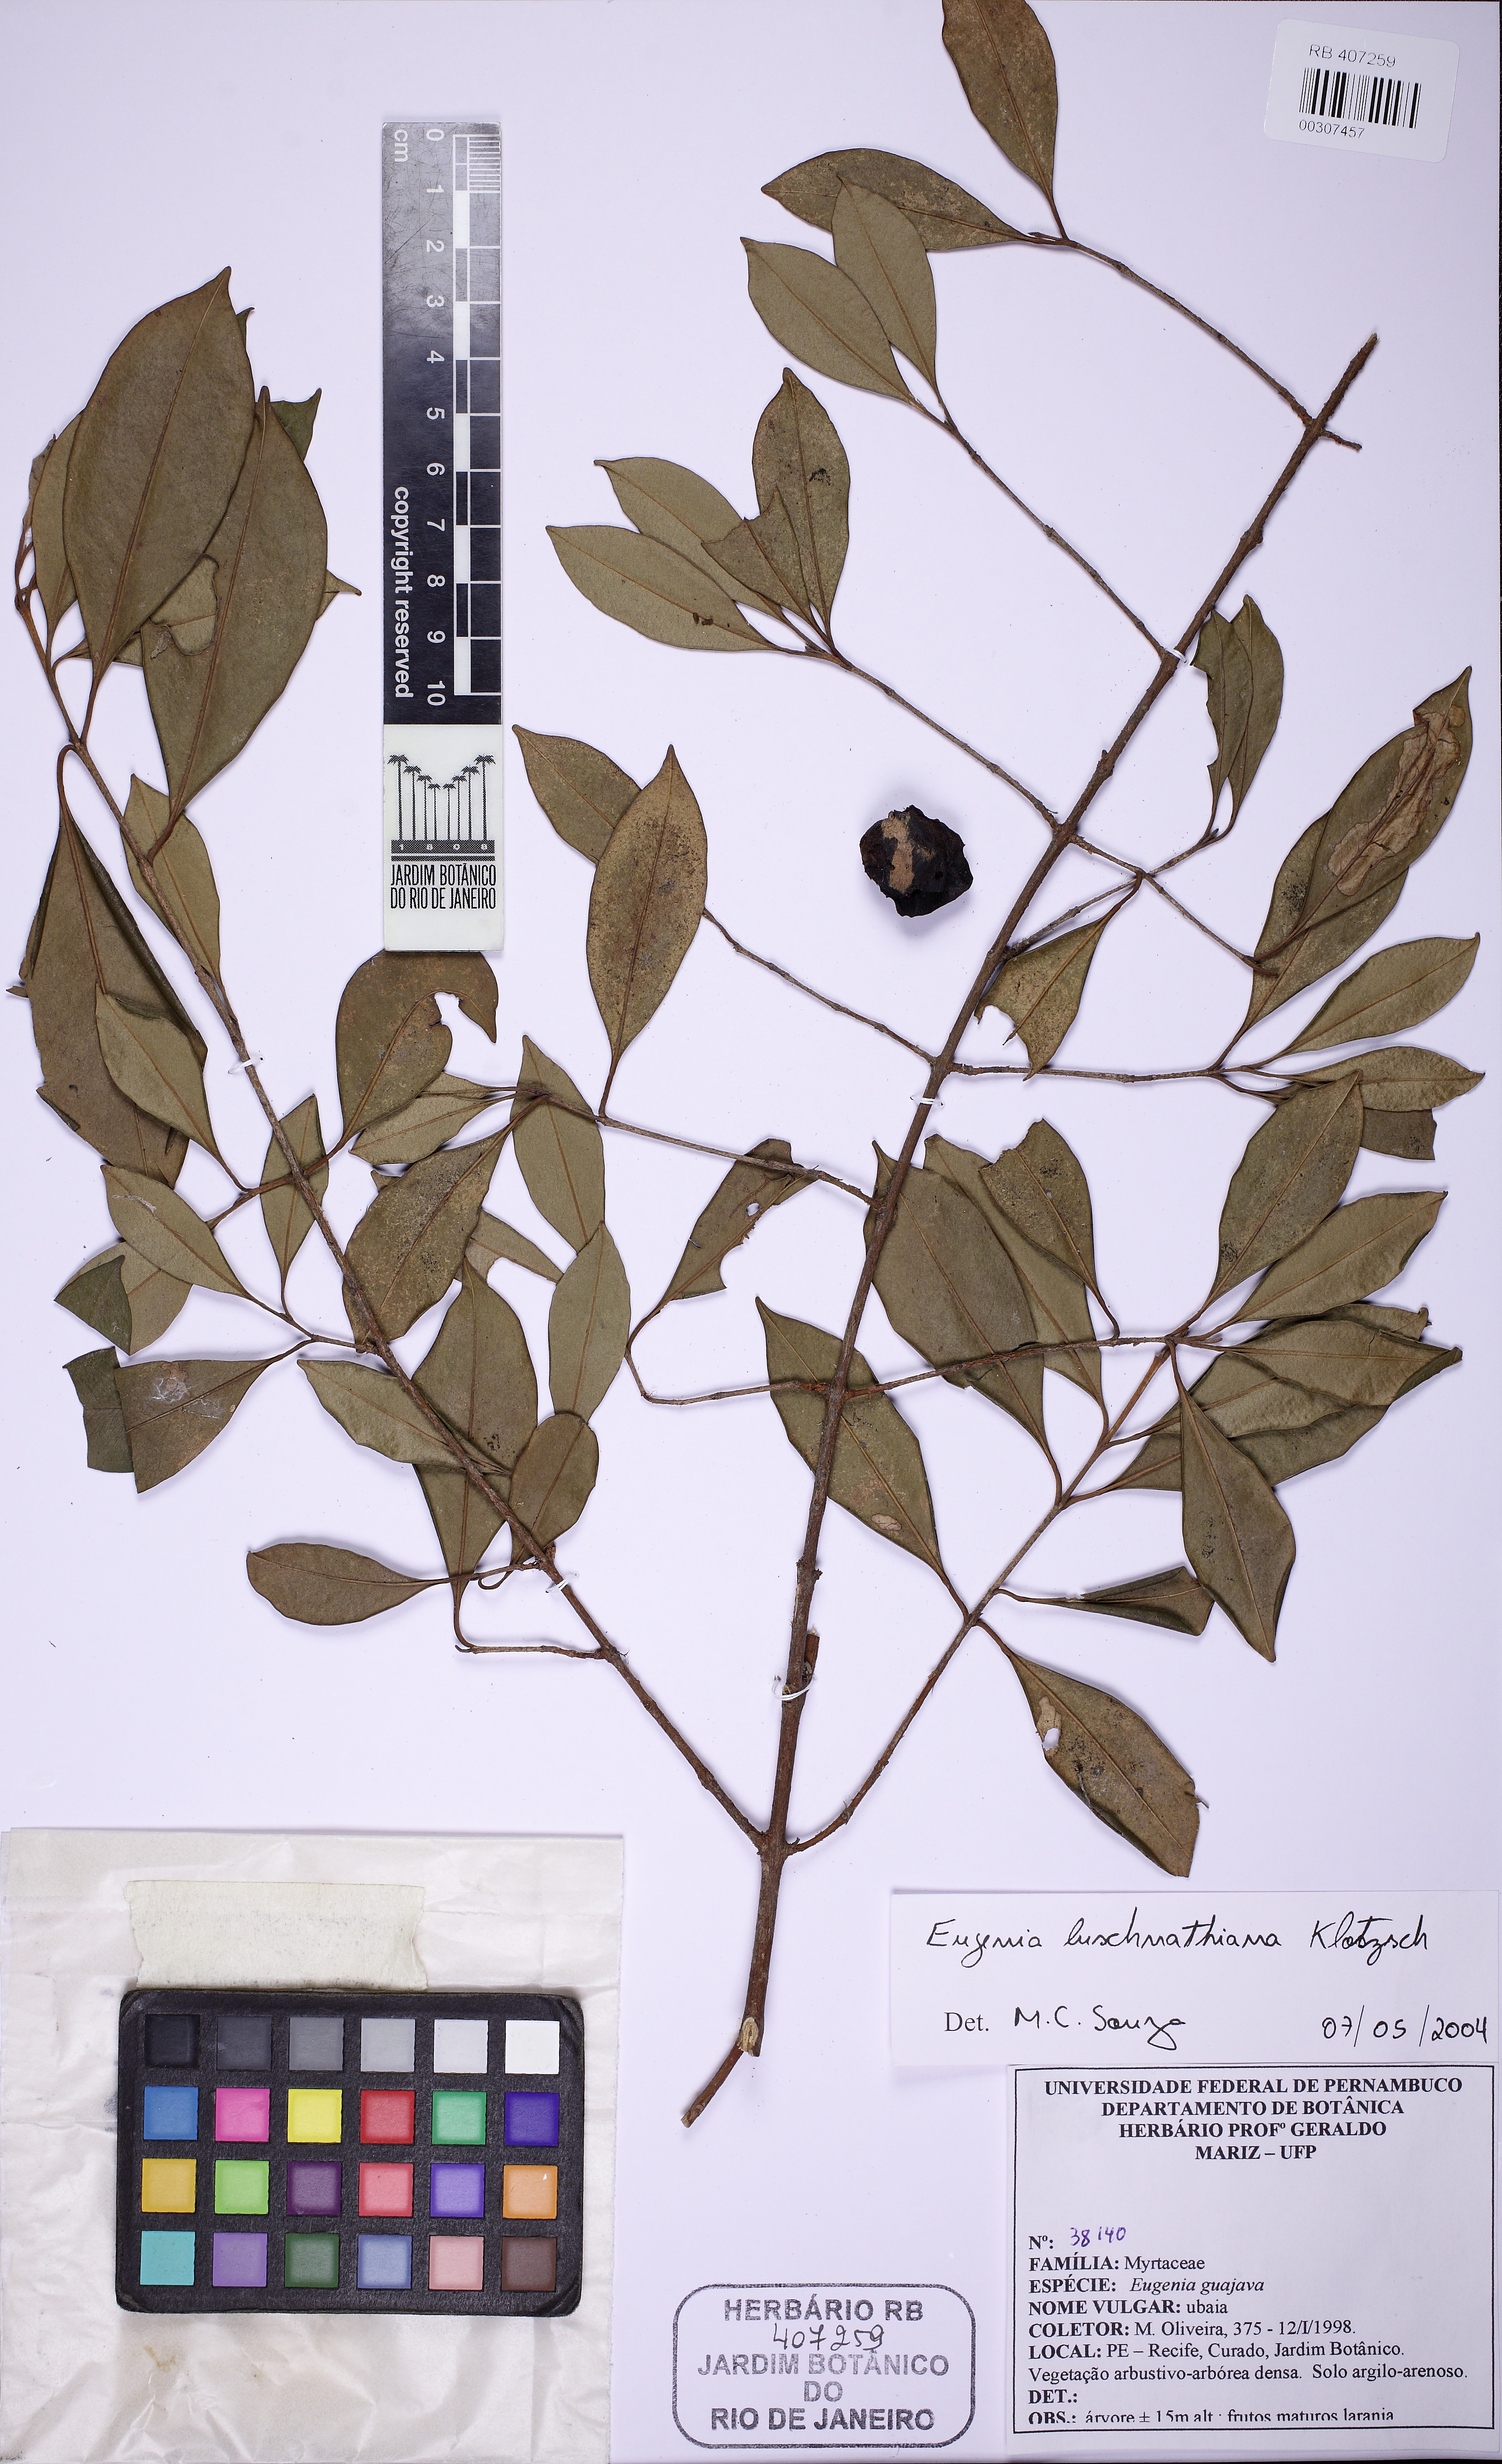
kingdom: Plantae
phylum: Tracheophyta
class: Magnoliopsida
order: Myrtales
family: Myrtaceae
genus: Eugenia
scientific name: Eugenia luschnathiana
